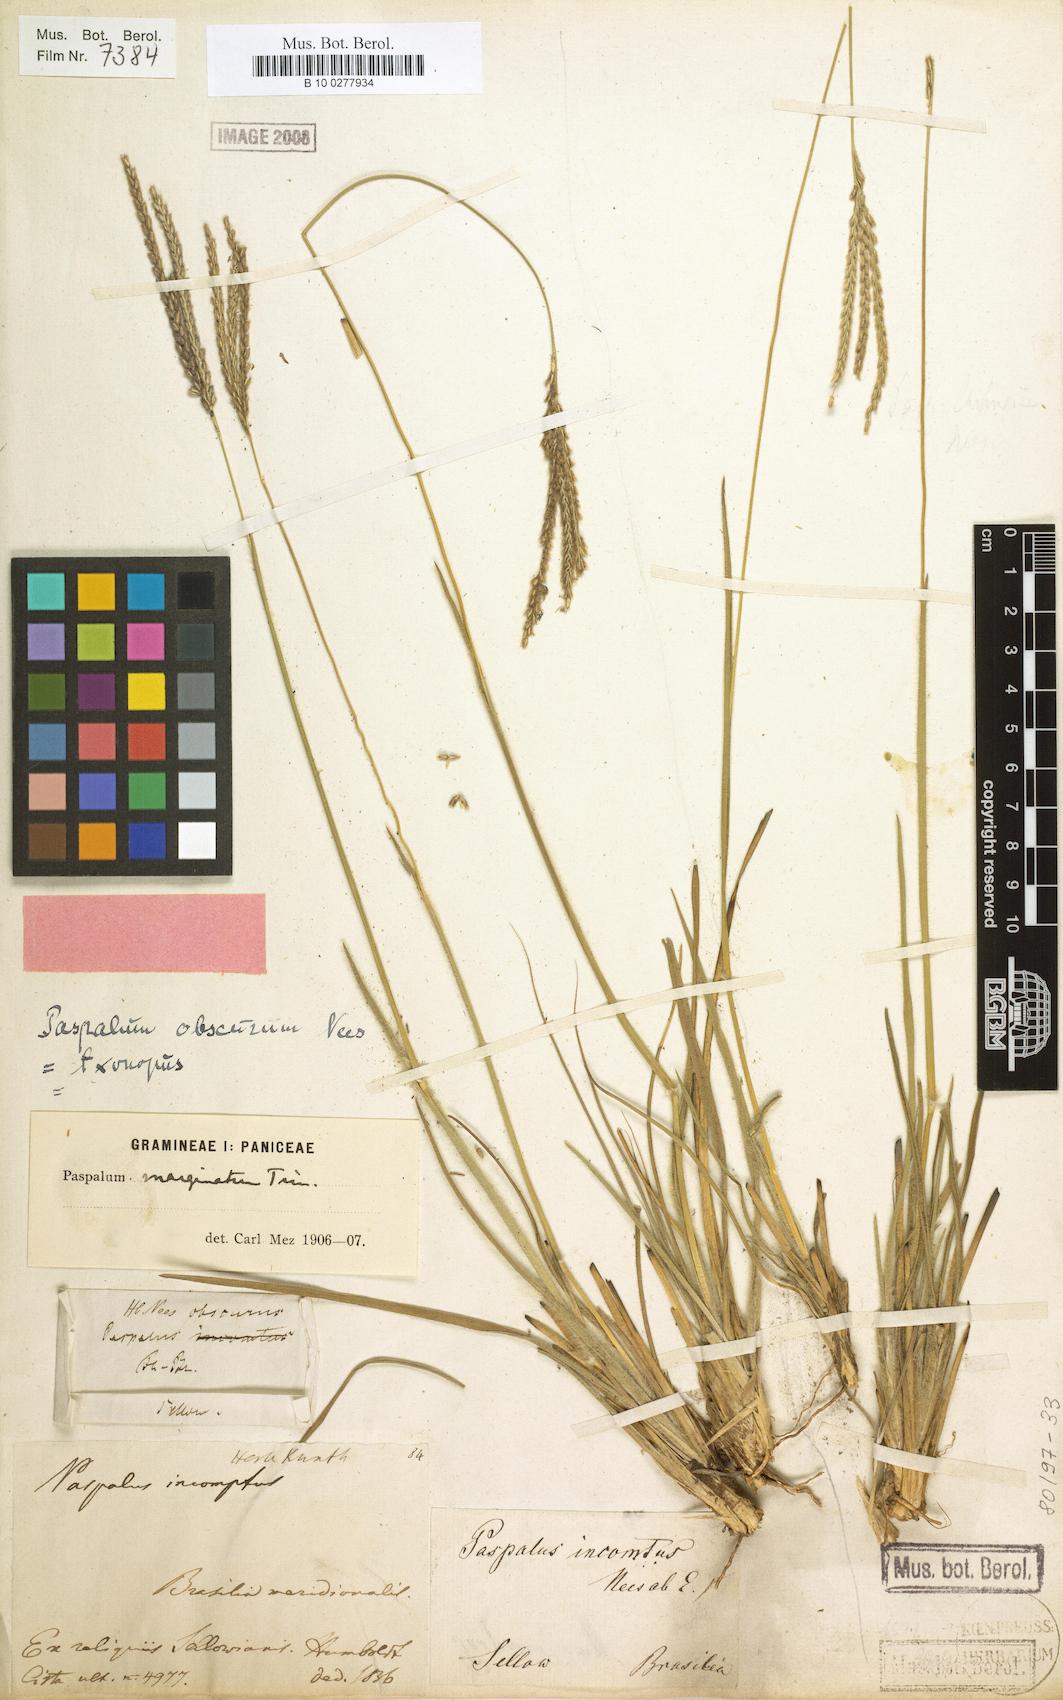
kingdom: Plantae
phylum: Tracheophyta
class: Liliopsida
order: Poales
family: Poaceae
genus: Paspalum
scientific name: Paspalum lachneum
